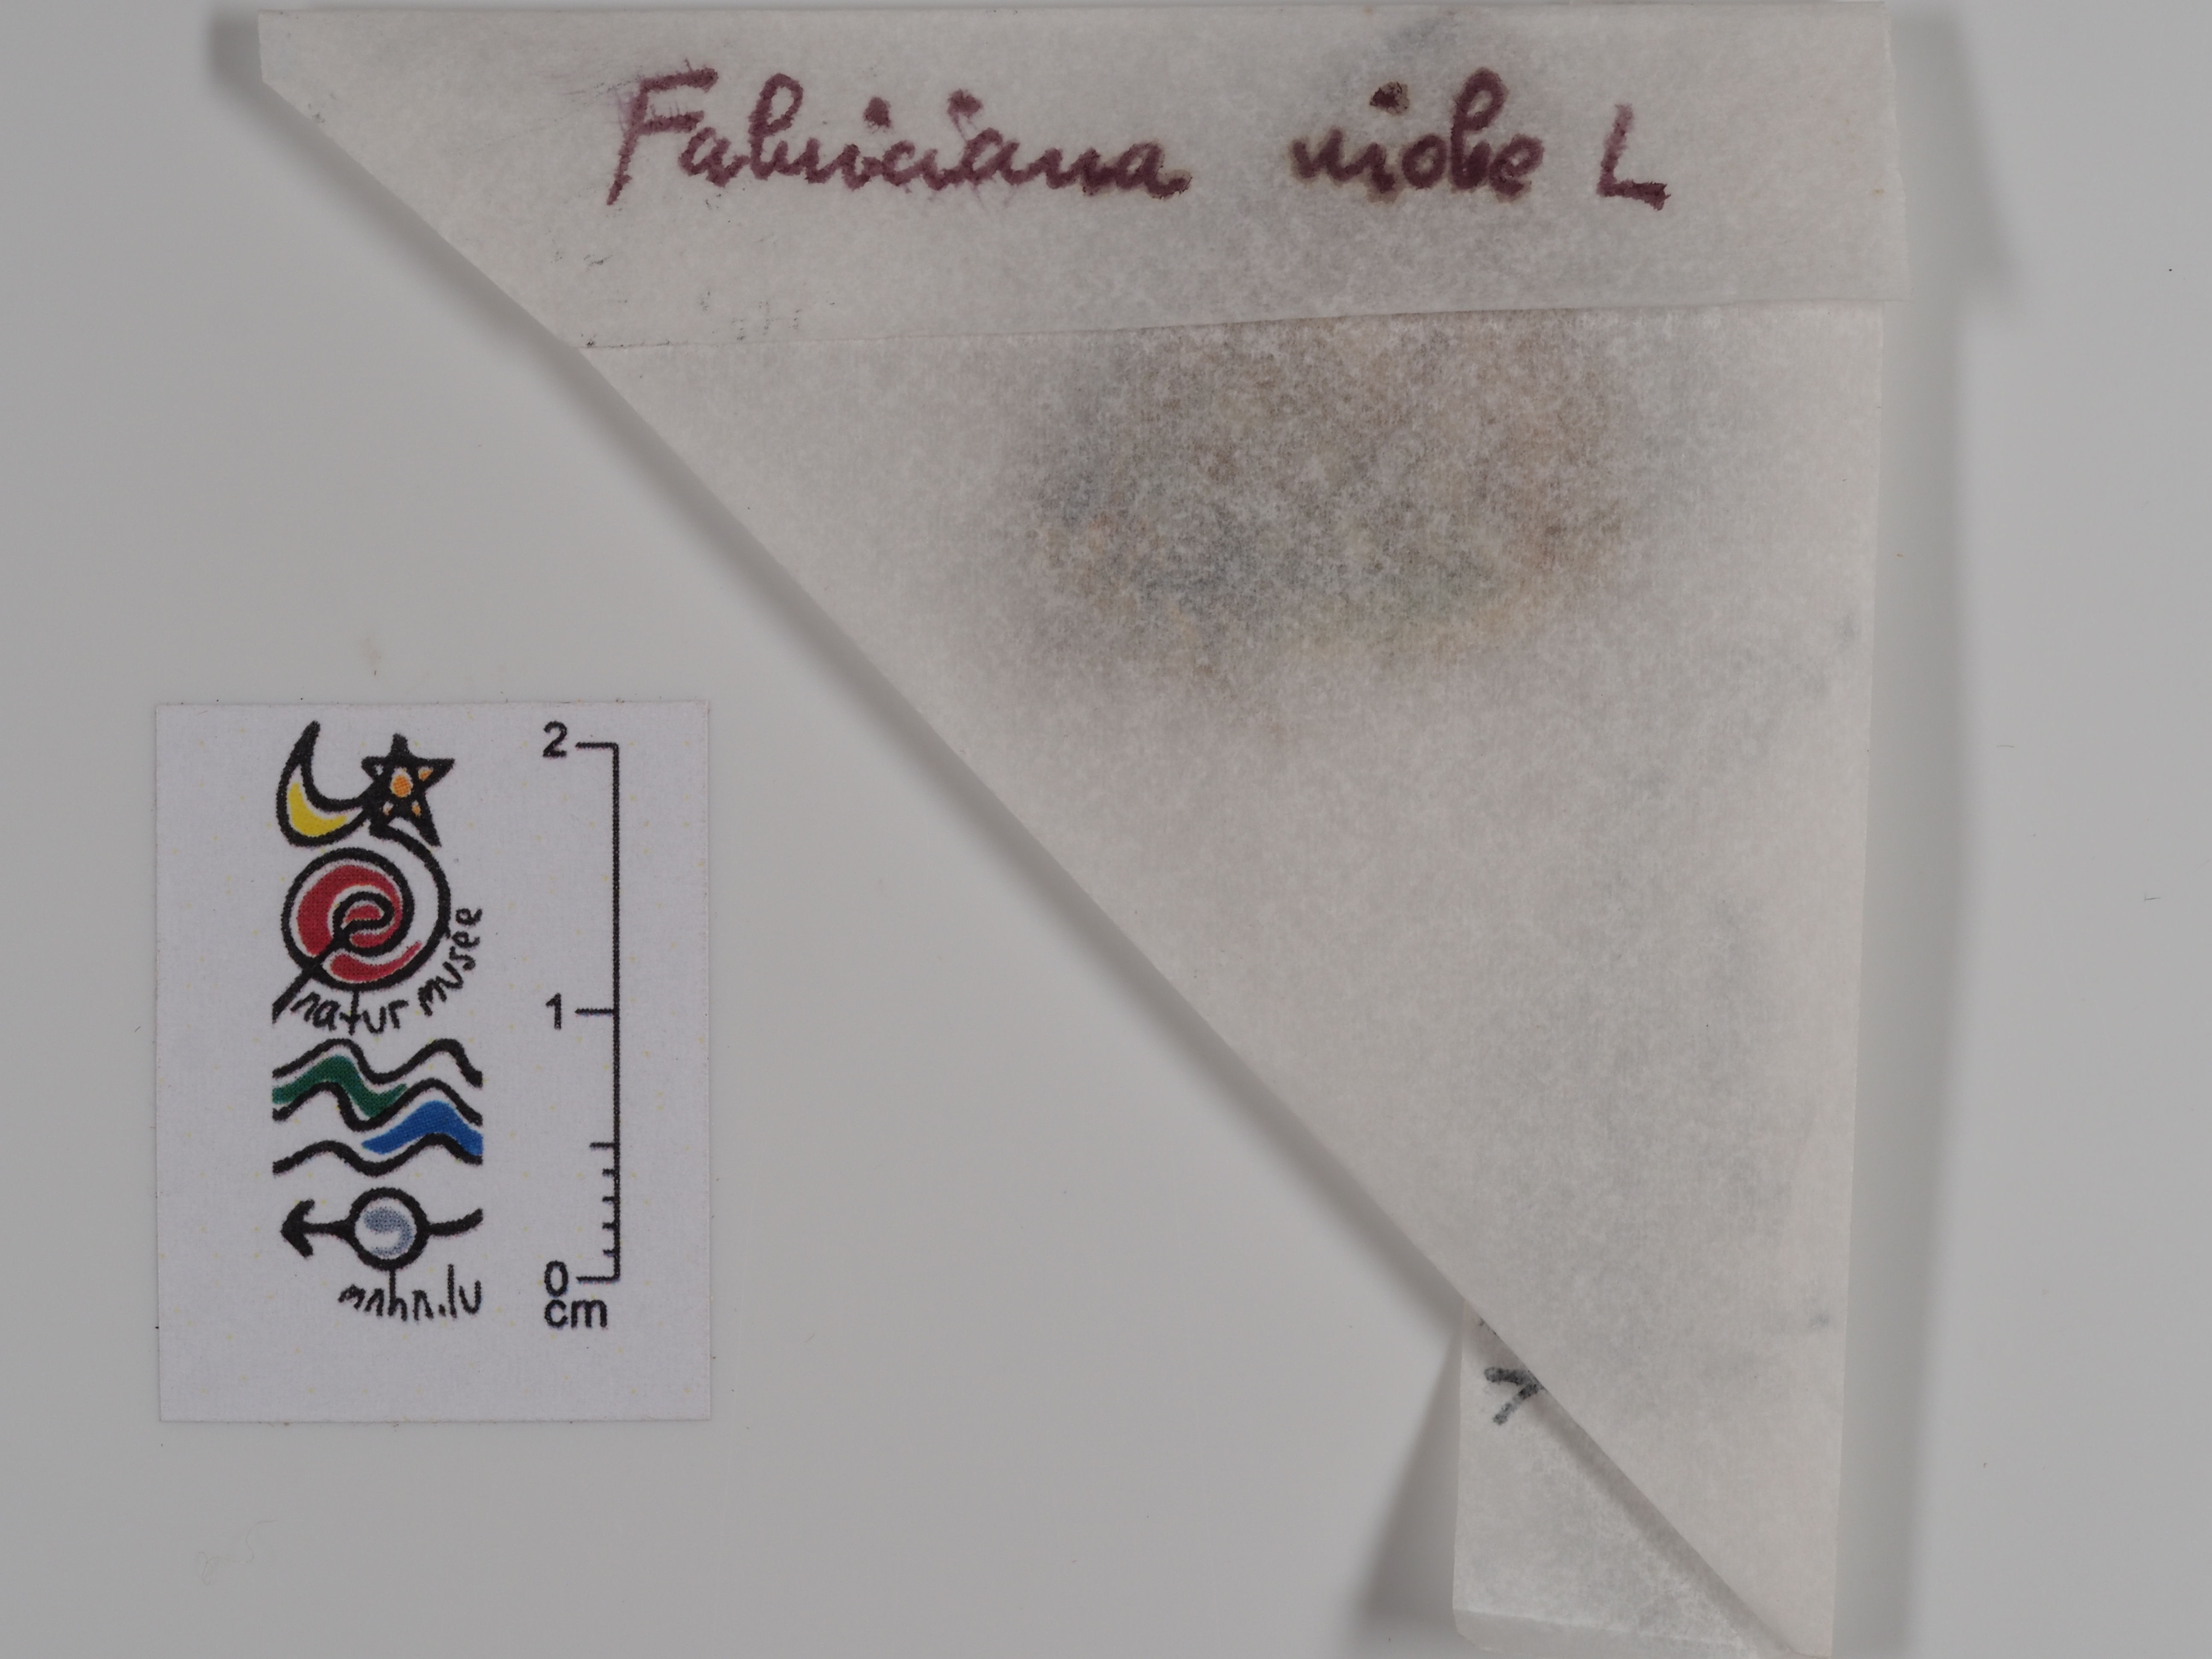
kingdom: Animalia
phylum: Arthropoda
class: Insecta
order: Lepidoptera
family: Nymphalidae
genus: Fabriciana
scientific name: Fabriciana niobe
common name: Niobe fritillary
